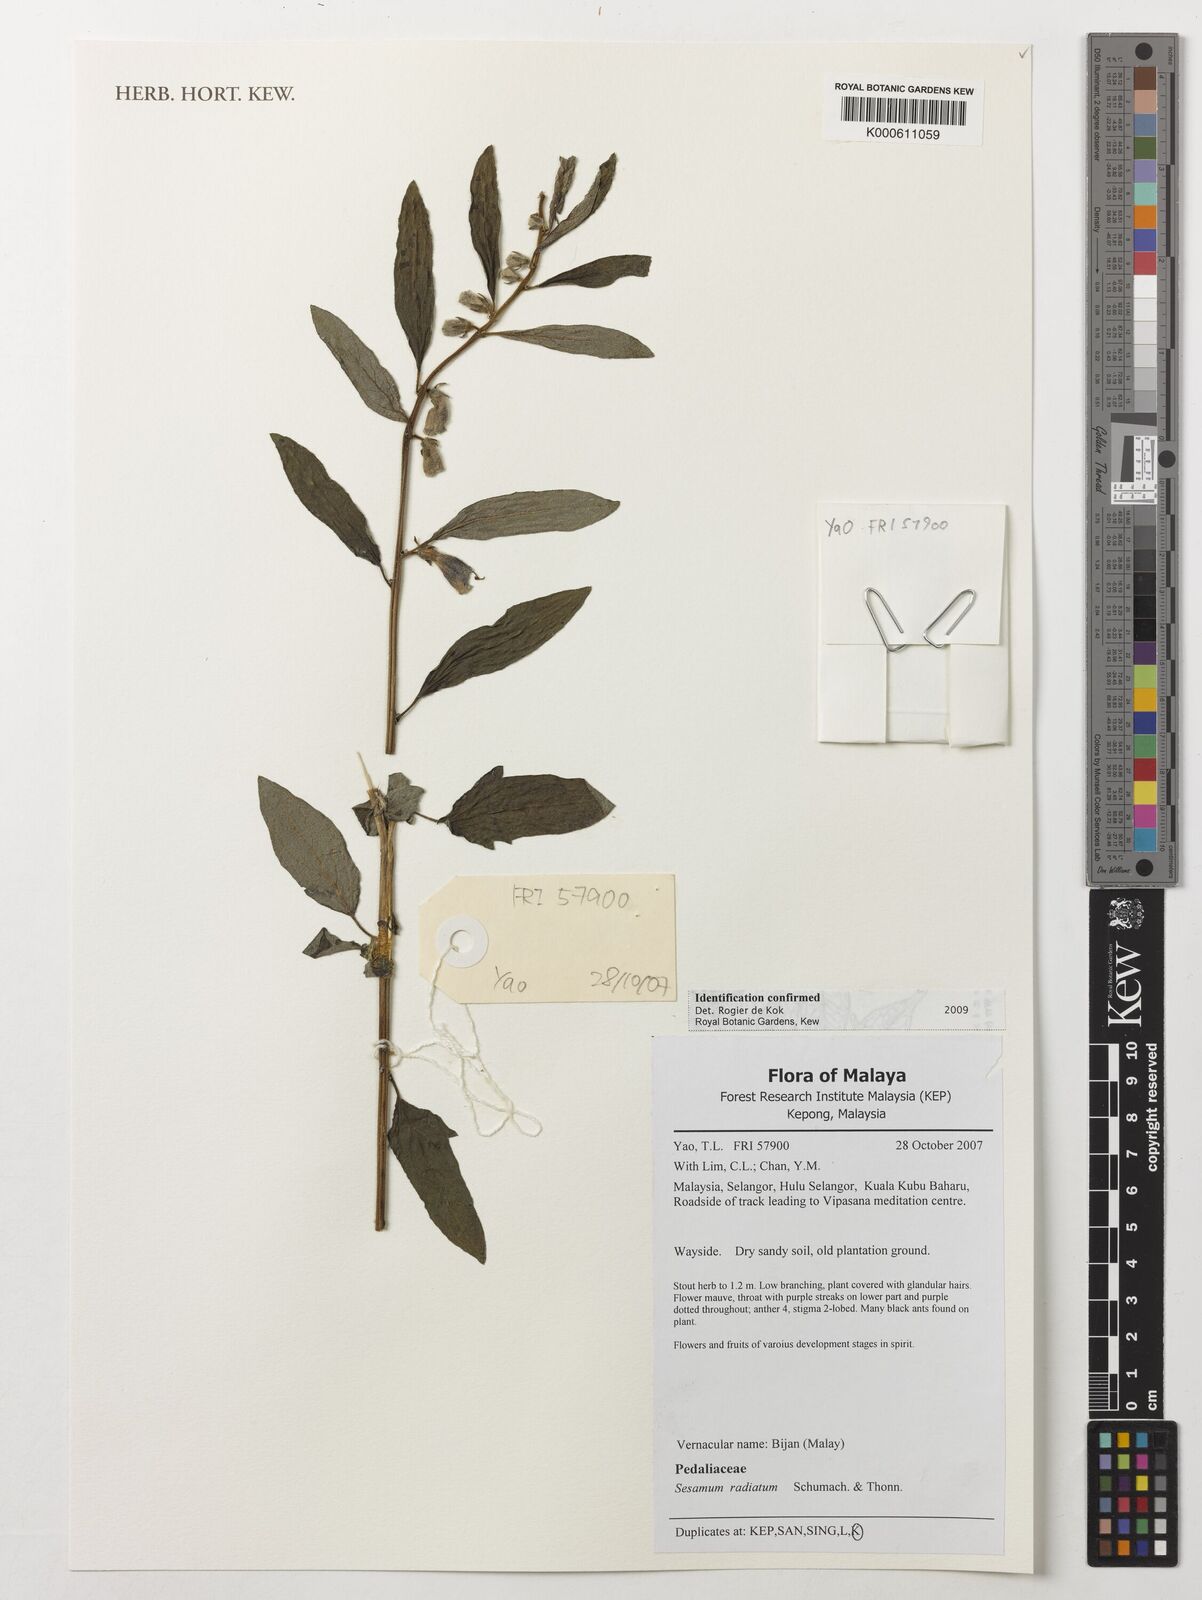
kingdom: Plantae
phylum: Tracheophyta
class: Magnoliopsida
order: Lamiales
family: Pedaliaceae
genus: Sesamum
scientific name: Sesamum radiatum
